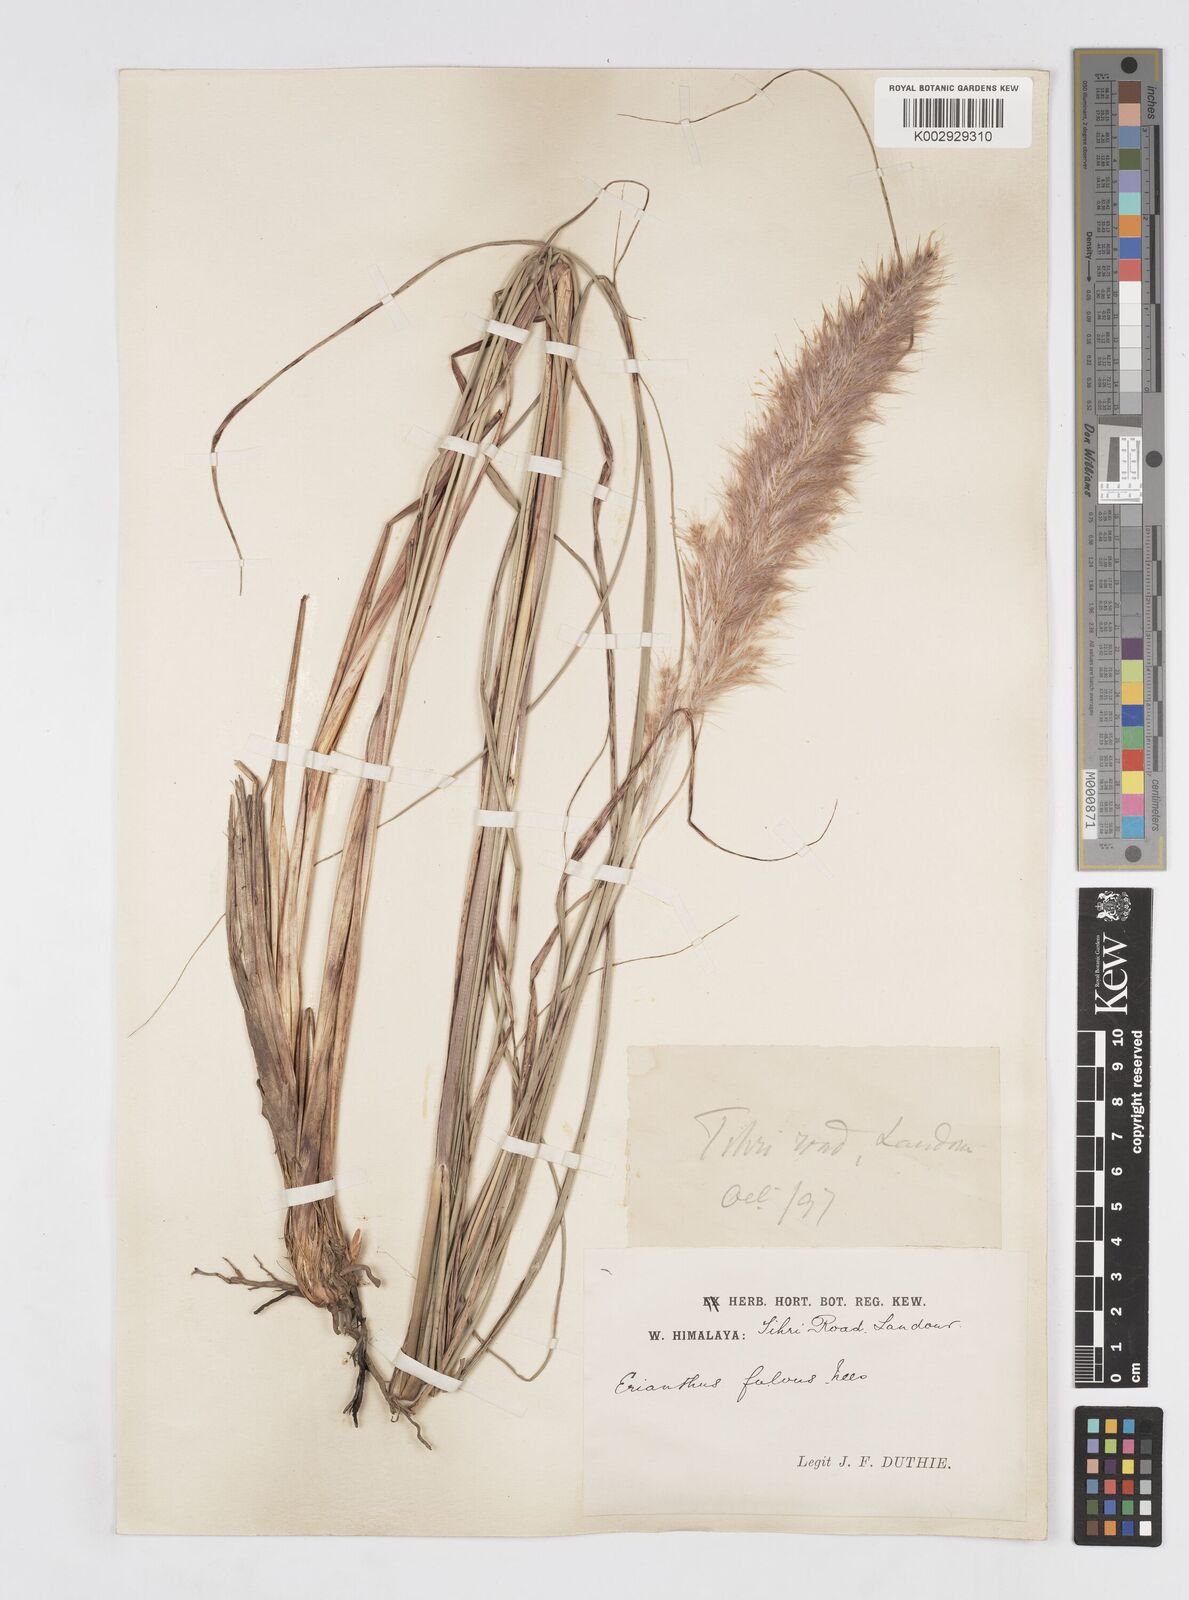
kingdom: Plantae
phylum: Tracheophyta
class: Liliopsida
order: Poales
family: Poaceae
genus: Tripidium
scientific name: Tripidium rufipilum
